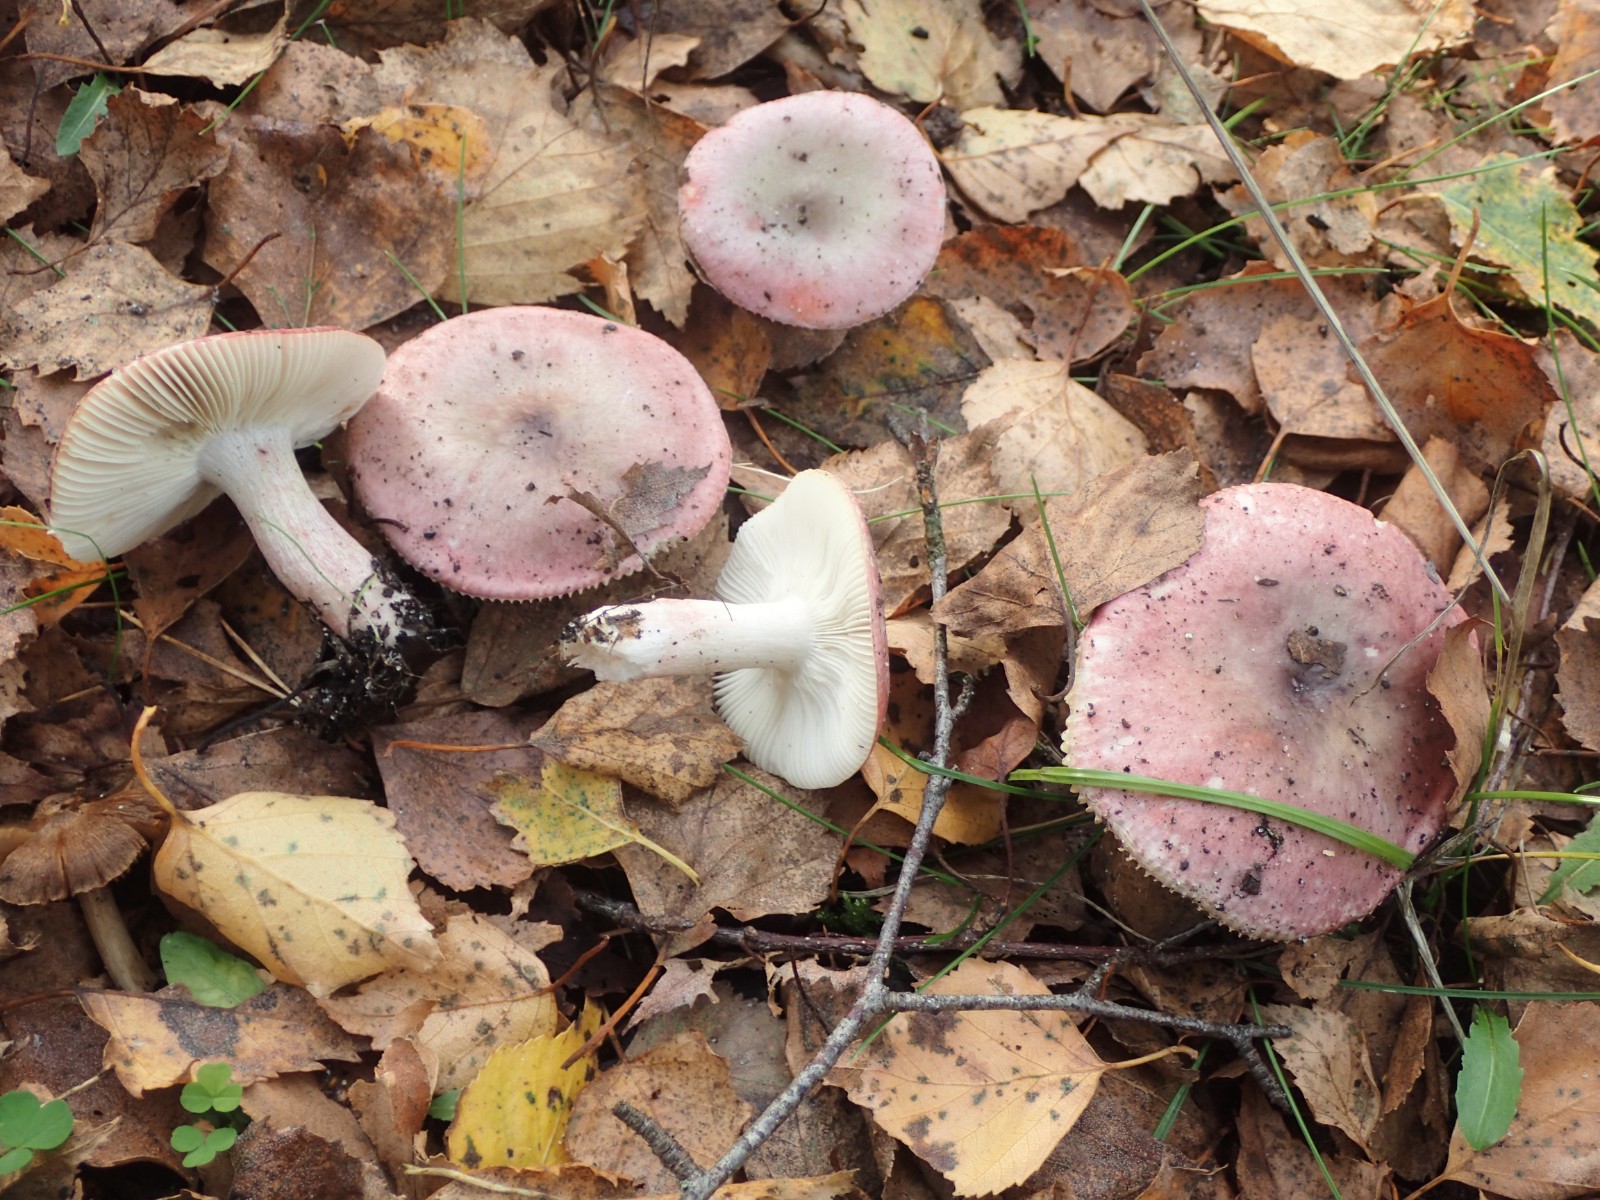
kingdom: Fungi
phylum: Basidiomycota
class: Agaricomycetes
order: Russulales
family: Russulaceae
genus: Russula
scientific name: Russula gracillima
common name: slank skørhat
